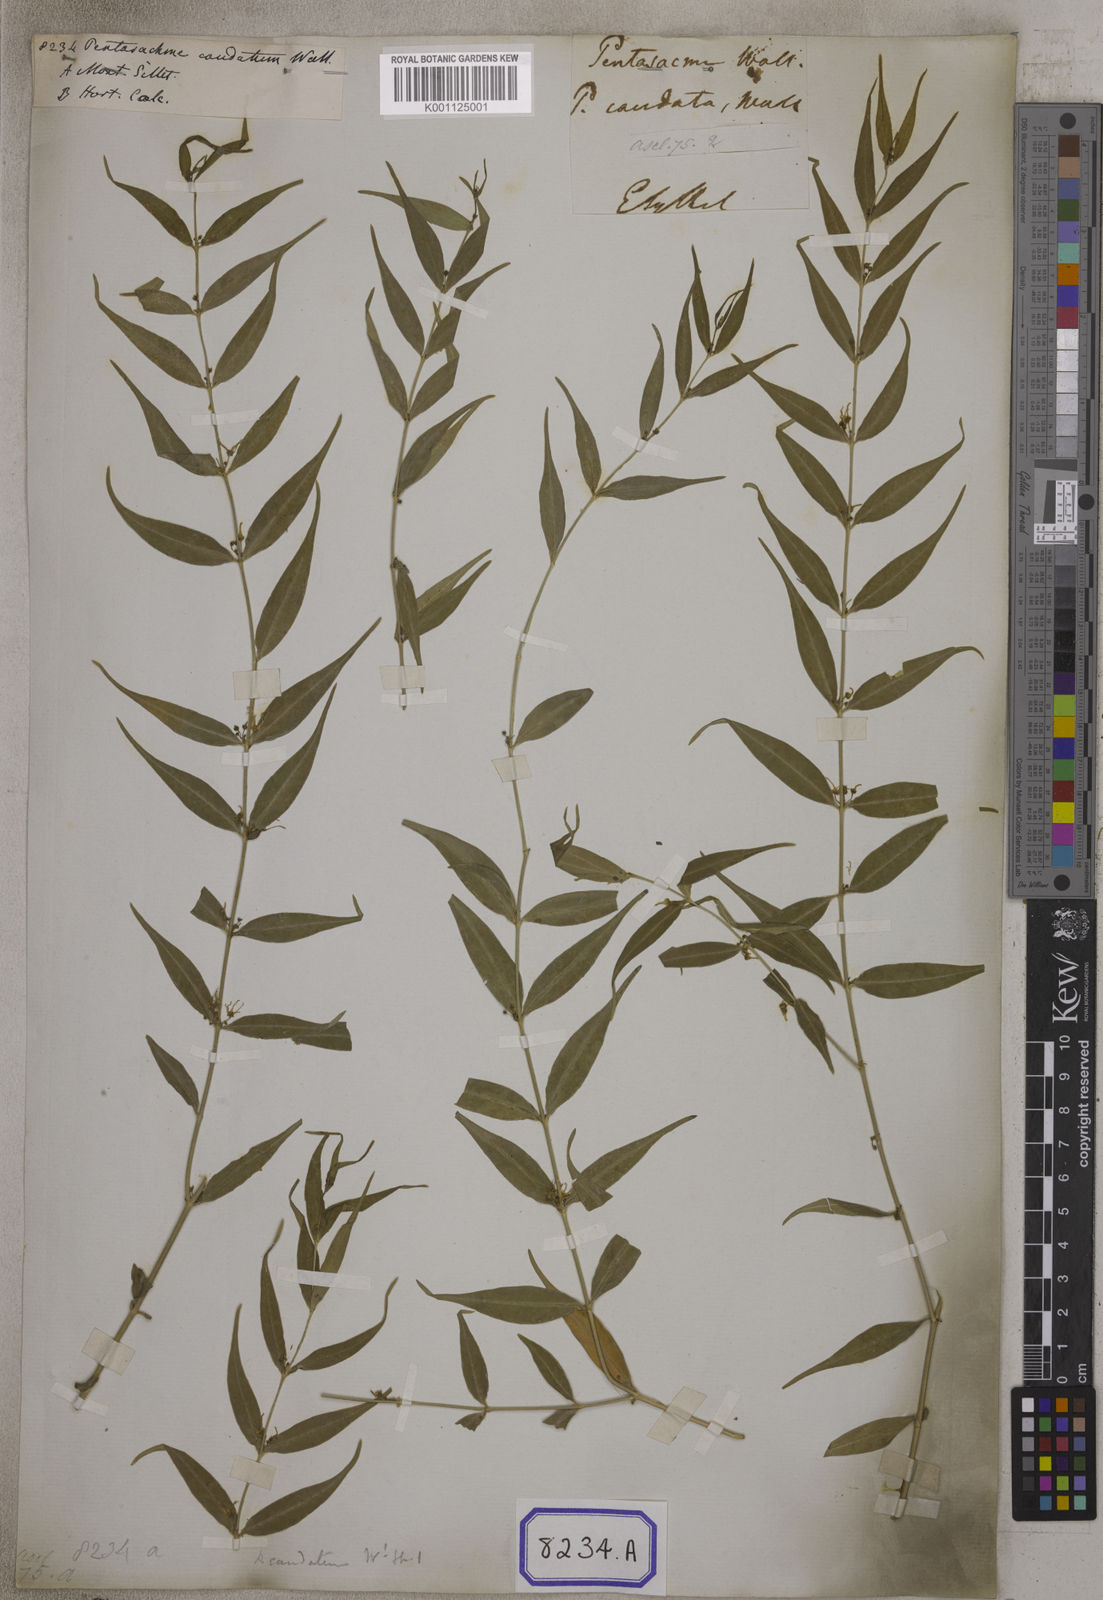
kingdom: Plantae
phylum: Tracheophyta
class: Magnoliopsida
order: Gentianales
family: Apocynaceae
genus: Pentasachme
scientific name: Pentasachme caudatum
